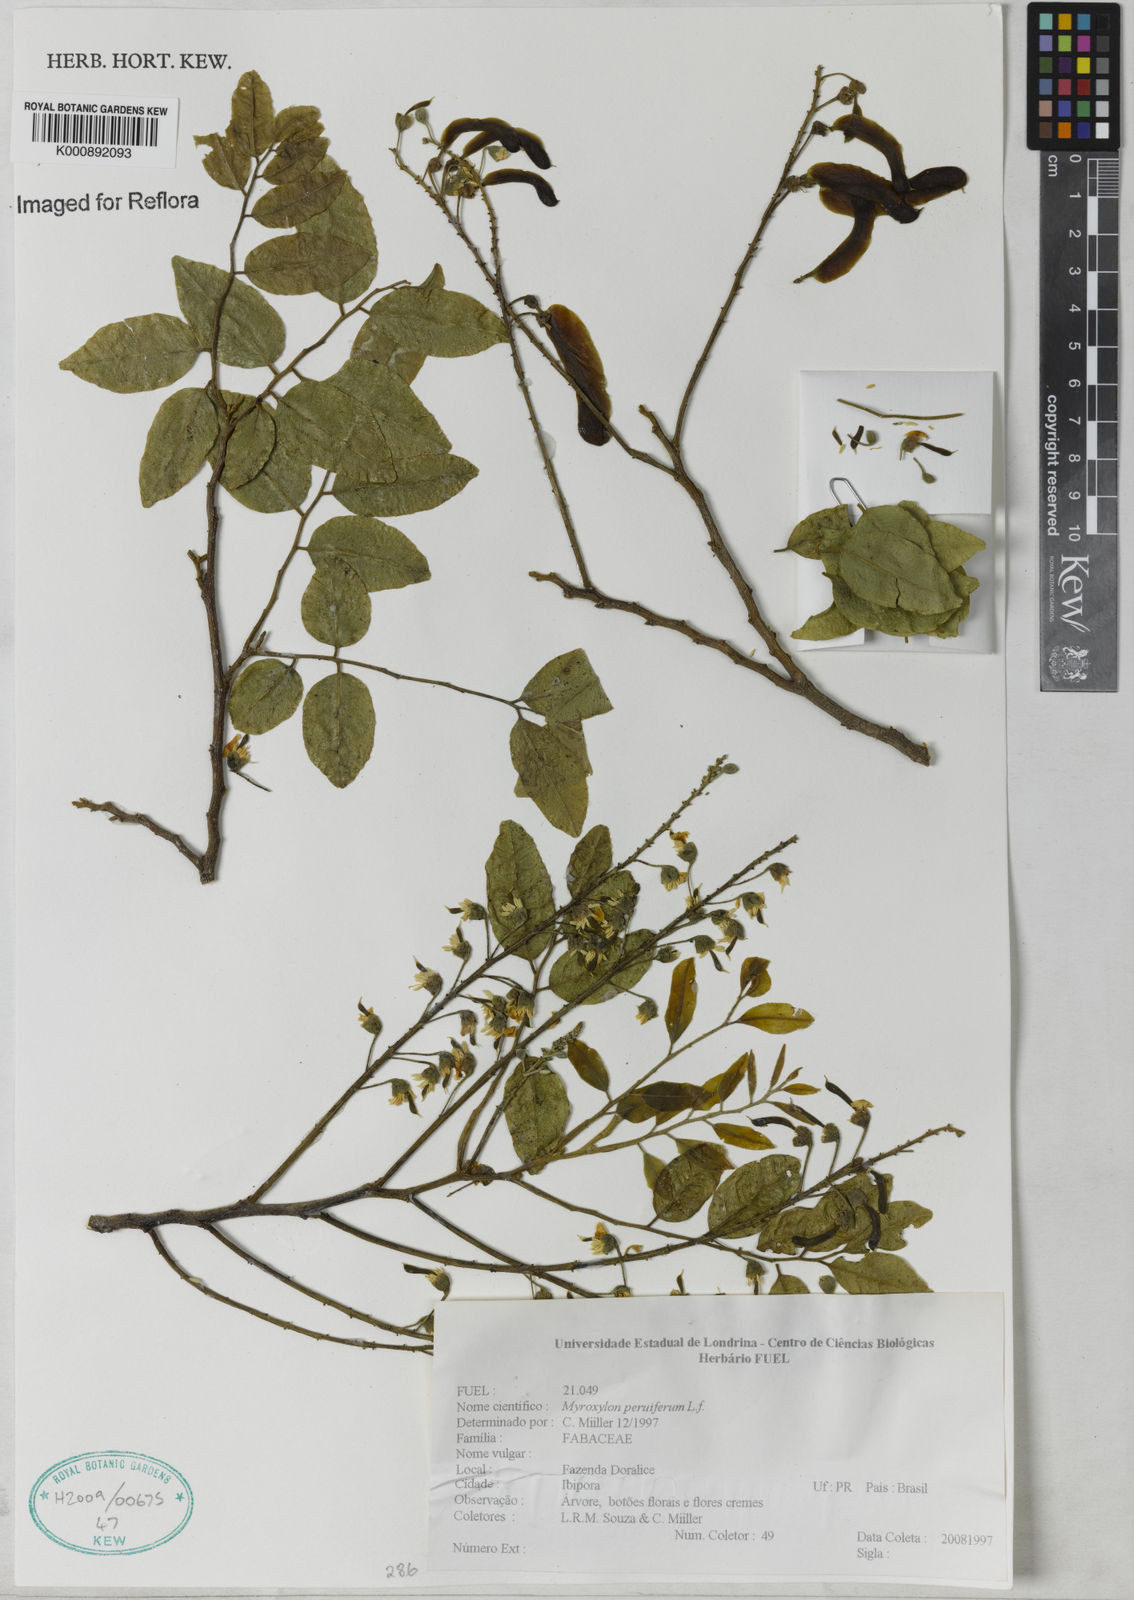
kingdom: Plantae
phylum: Tracheophyta
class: Magnoliopsida
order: Fabales
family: Fabaceae
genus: Myroxylon
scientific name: Myroxylon balsamum
